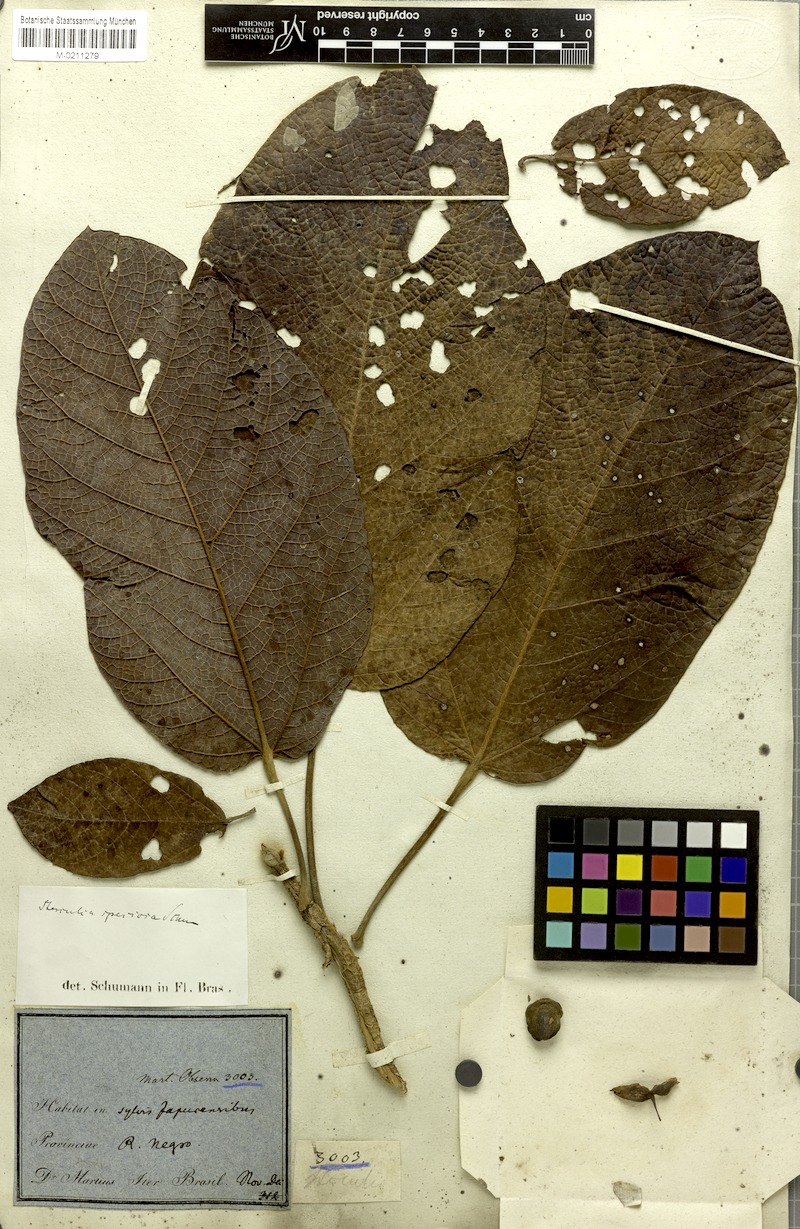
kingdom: Plantae
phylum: Tracheophyta
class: Magnoliopsida
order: Malvales
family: Malvaceae
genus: Sterculia
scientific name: Sterculia speciosa
